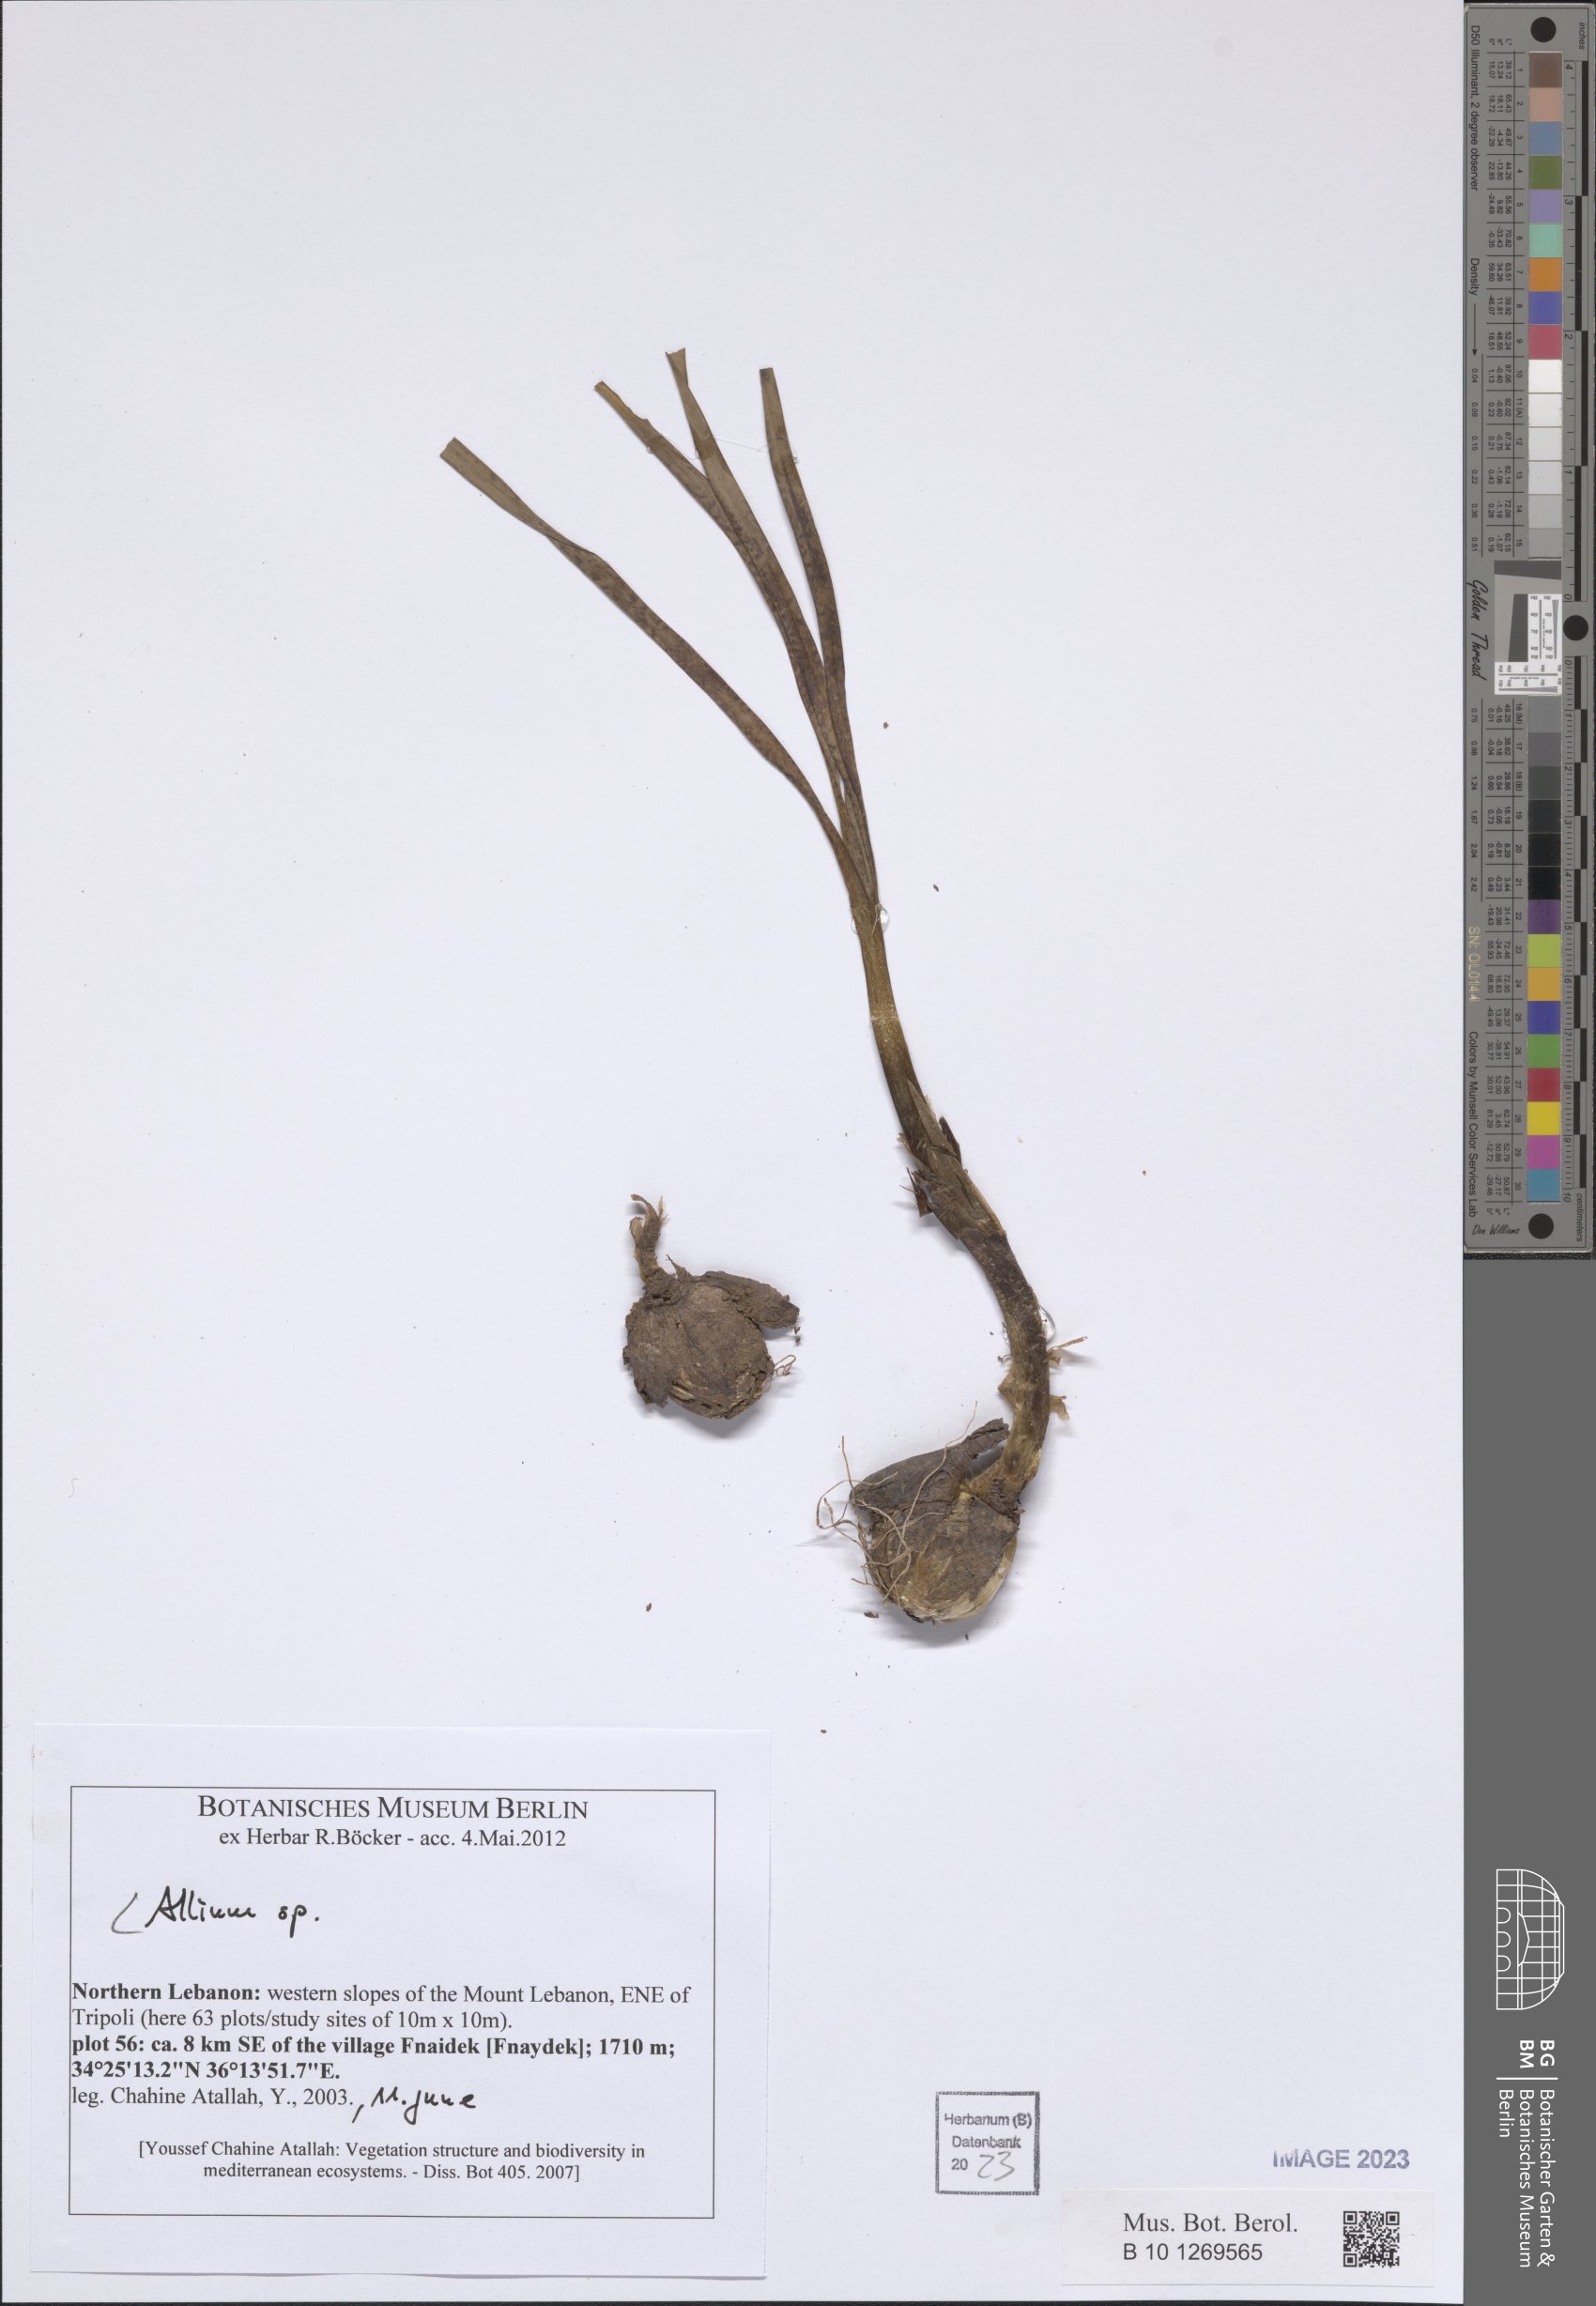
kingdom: Plantae
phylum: Tracheophyta
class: Liliopsida
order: Asparagales
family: Amaryllidaceae
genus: Allium
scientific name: Allium
